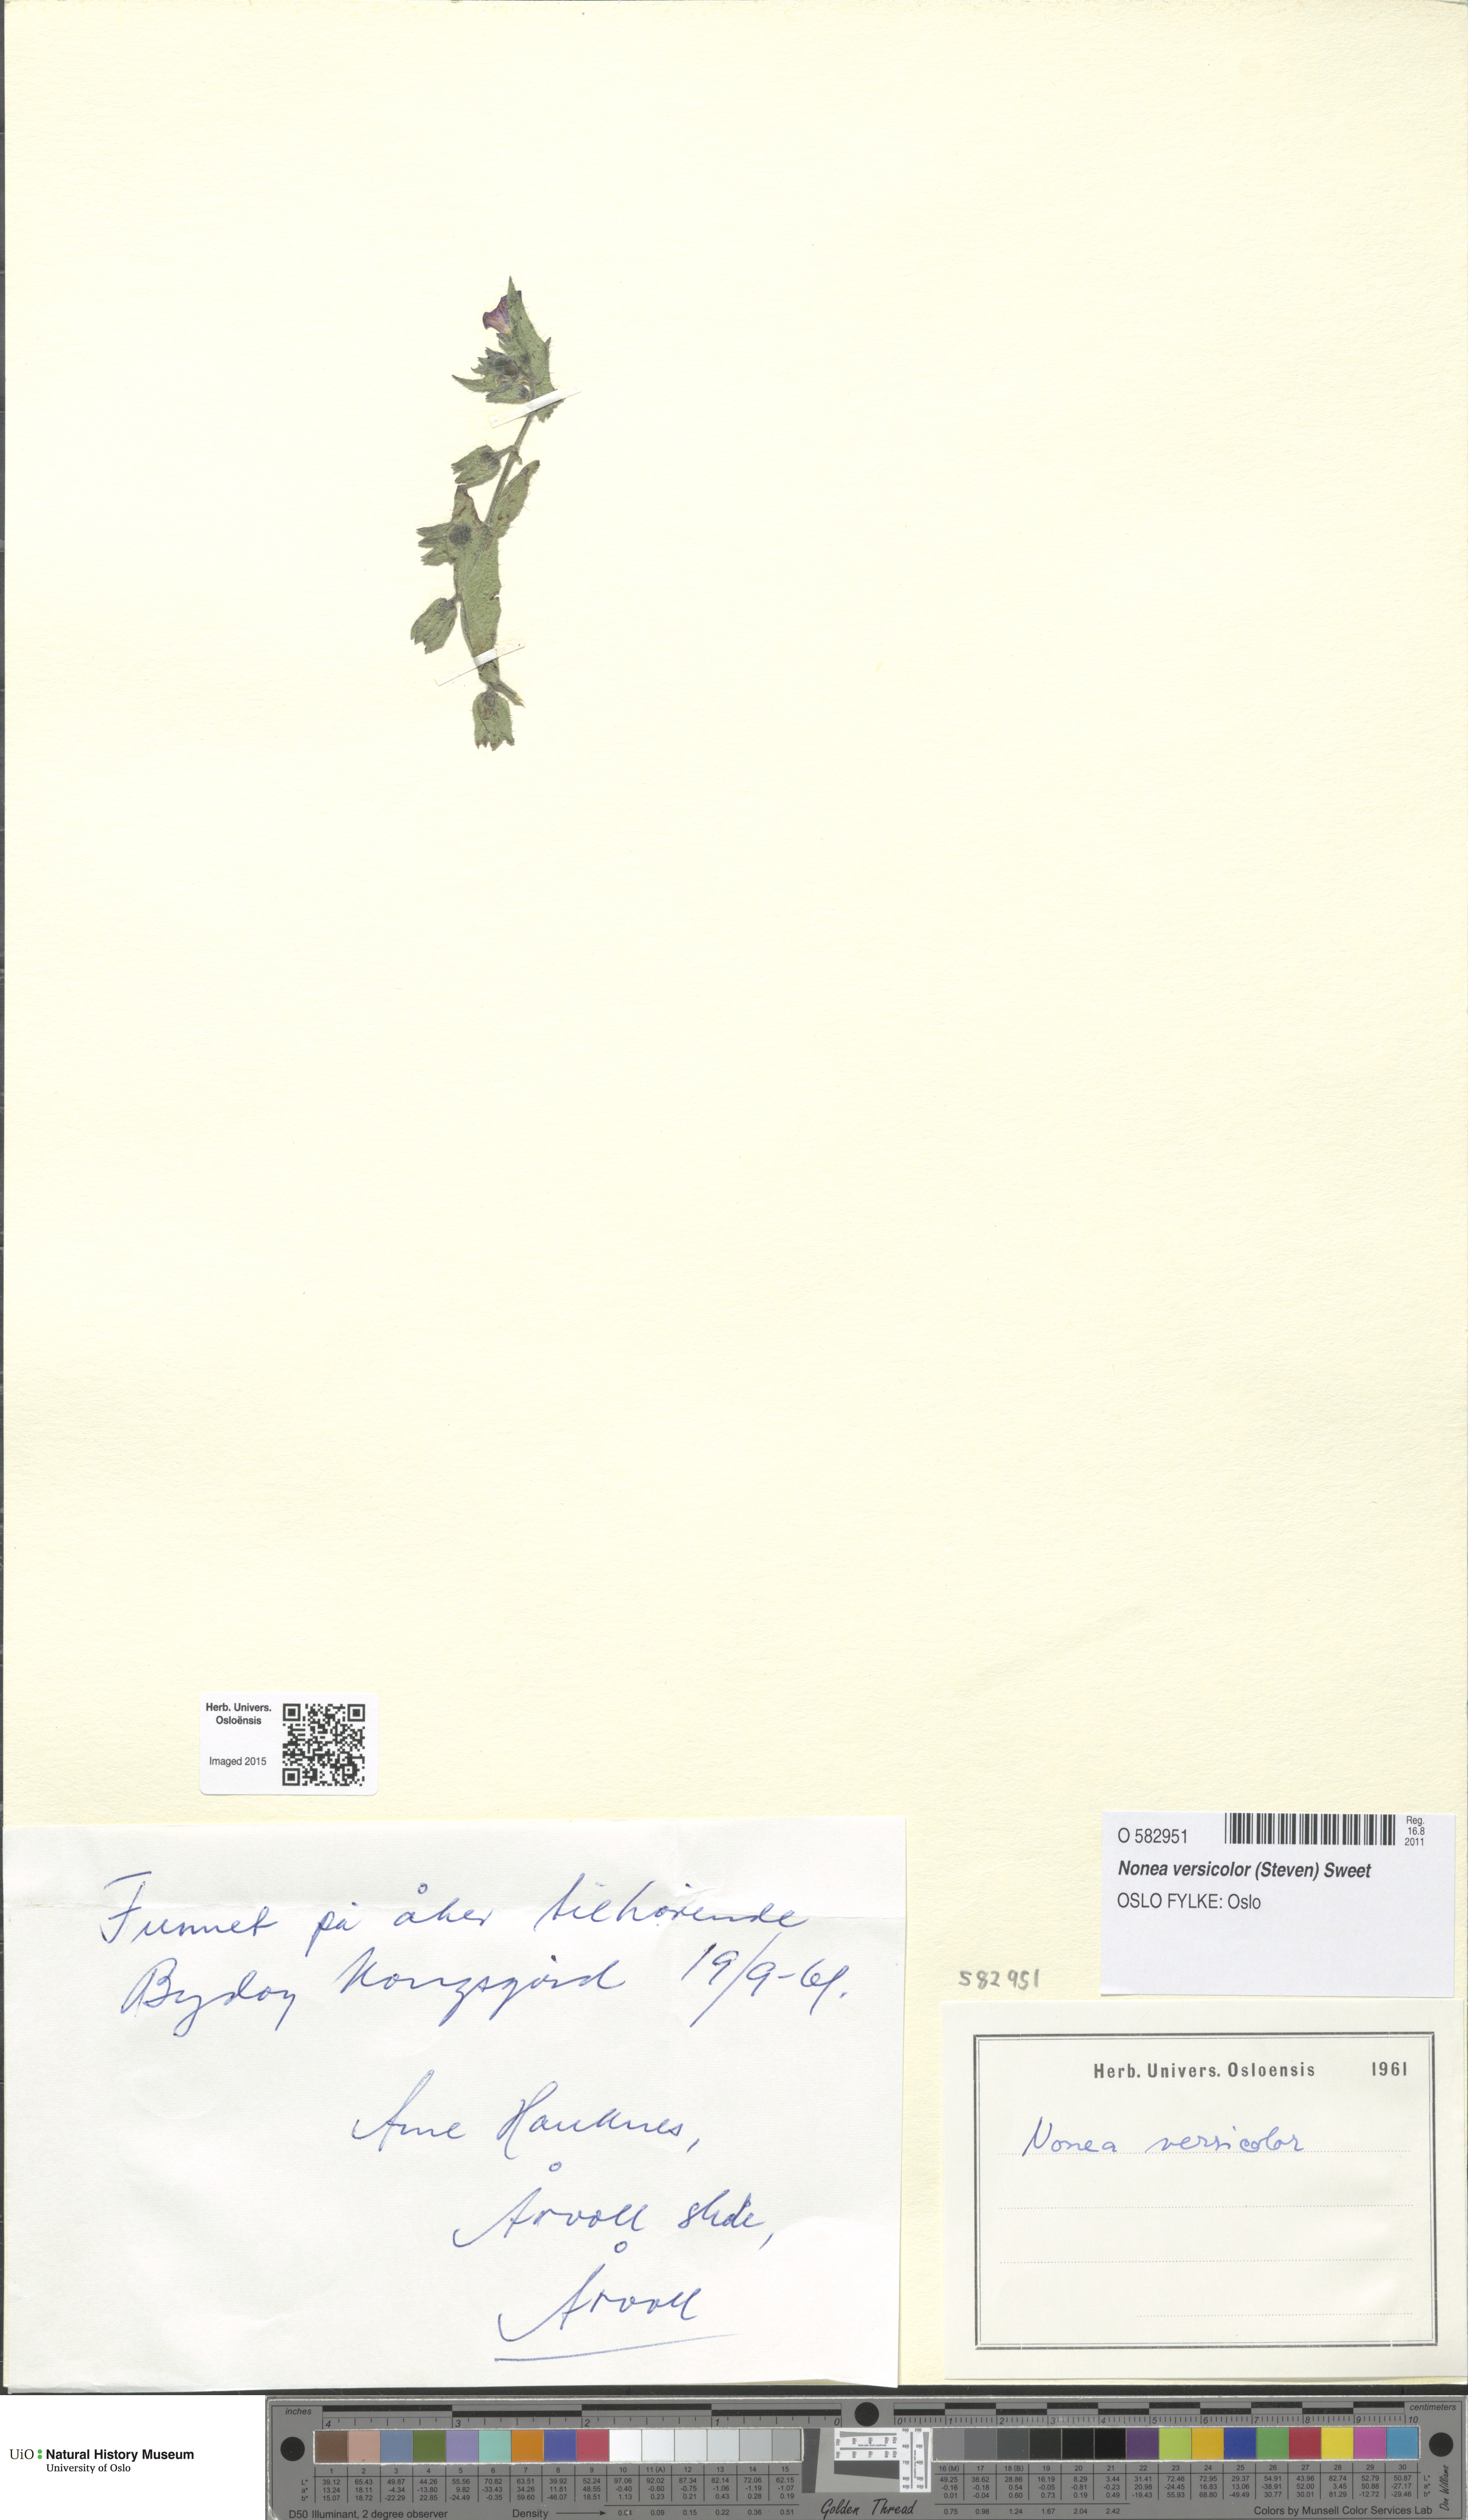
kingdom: Plantae
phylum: Tracheophyta
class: Magnoliopsida
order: Boraginales
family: Boraginaceae
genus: Nonea
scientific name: Nonea versicolor
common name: Varied monkswort
